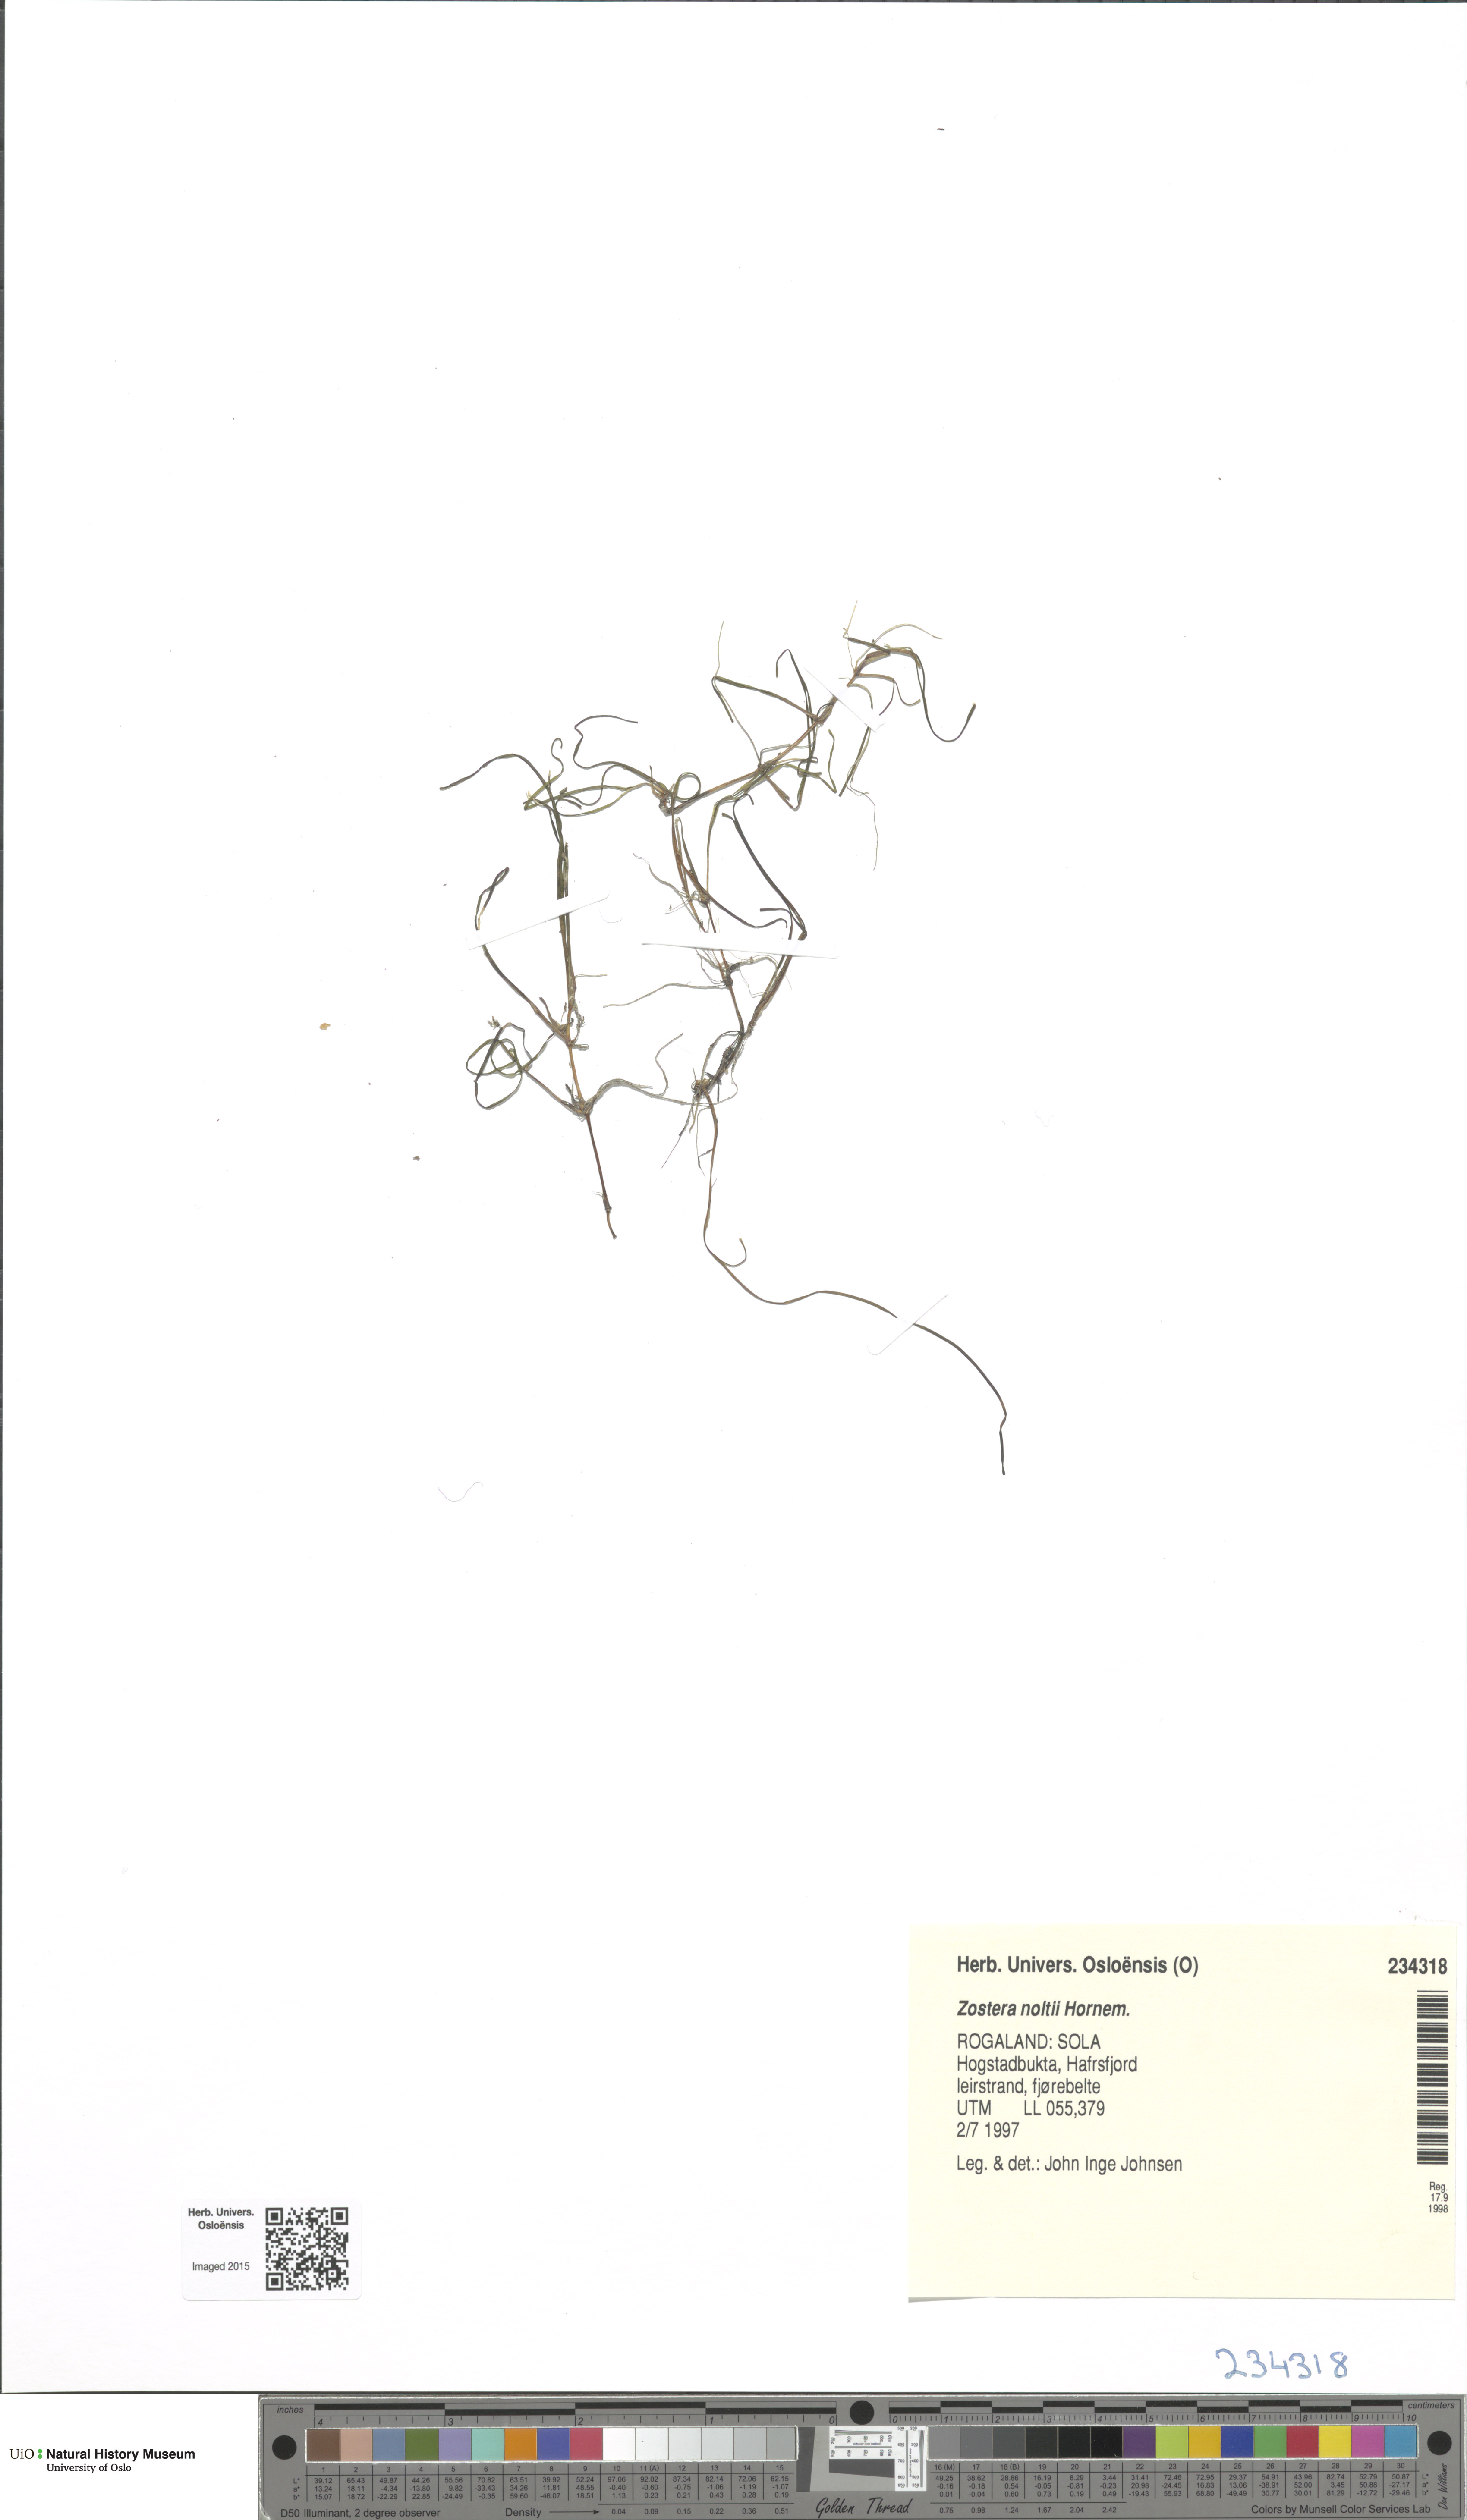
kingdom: Plantae
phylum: Tracheophyta
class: Liliopsida
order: Alismatales
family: Zosteraceae
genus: Zostera
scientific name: Zostera noltii
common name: Dwarf eelgrass
